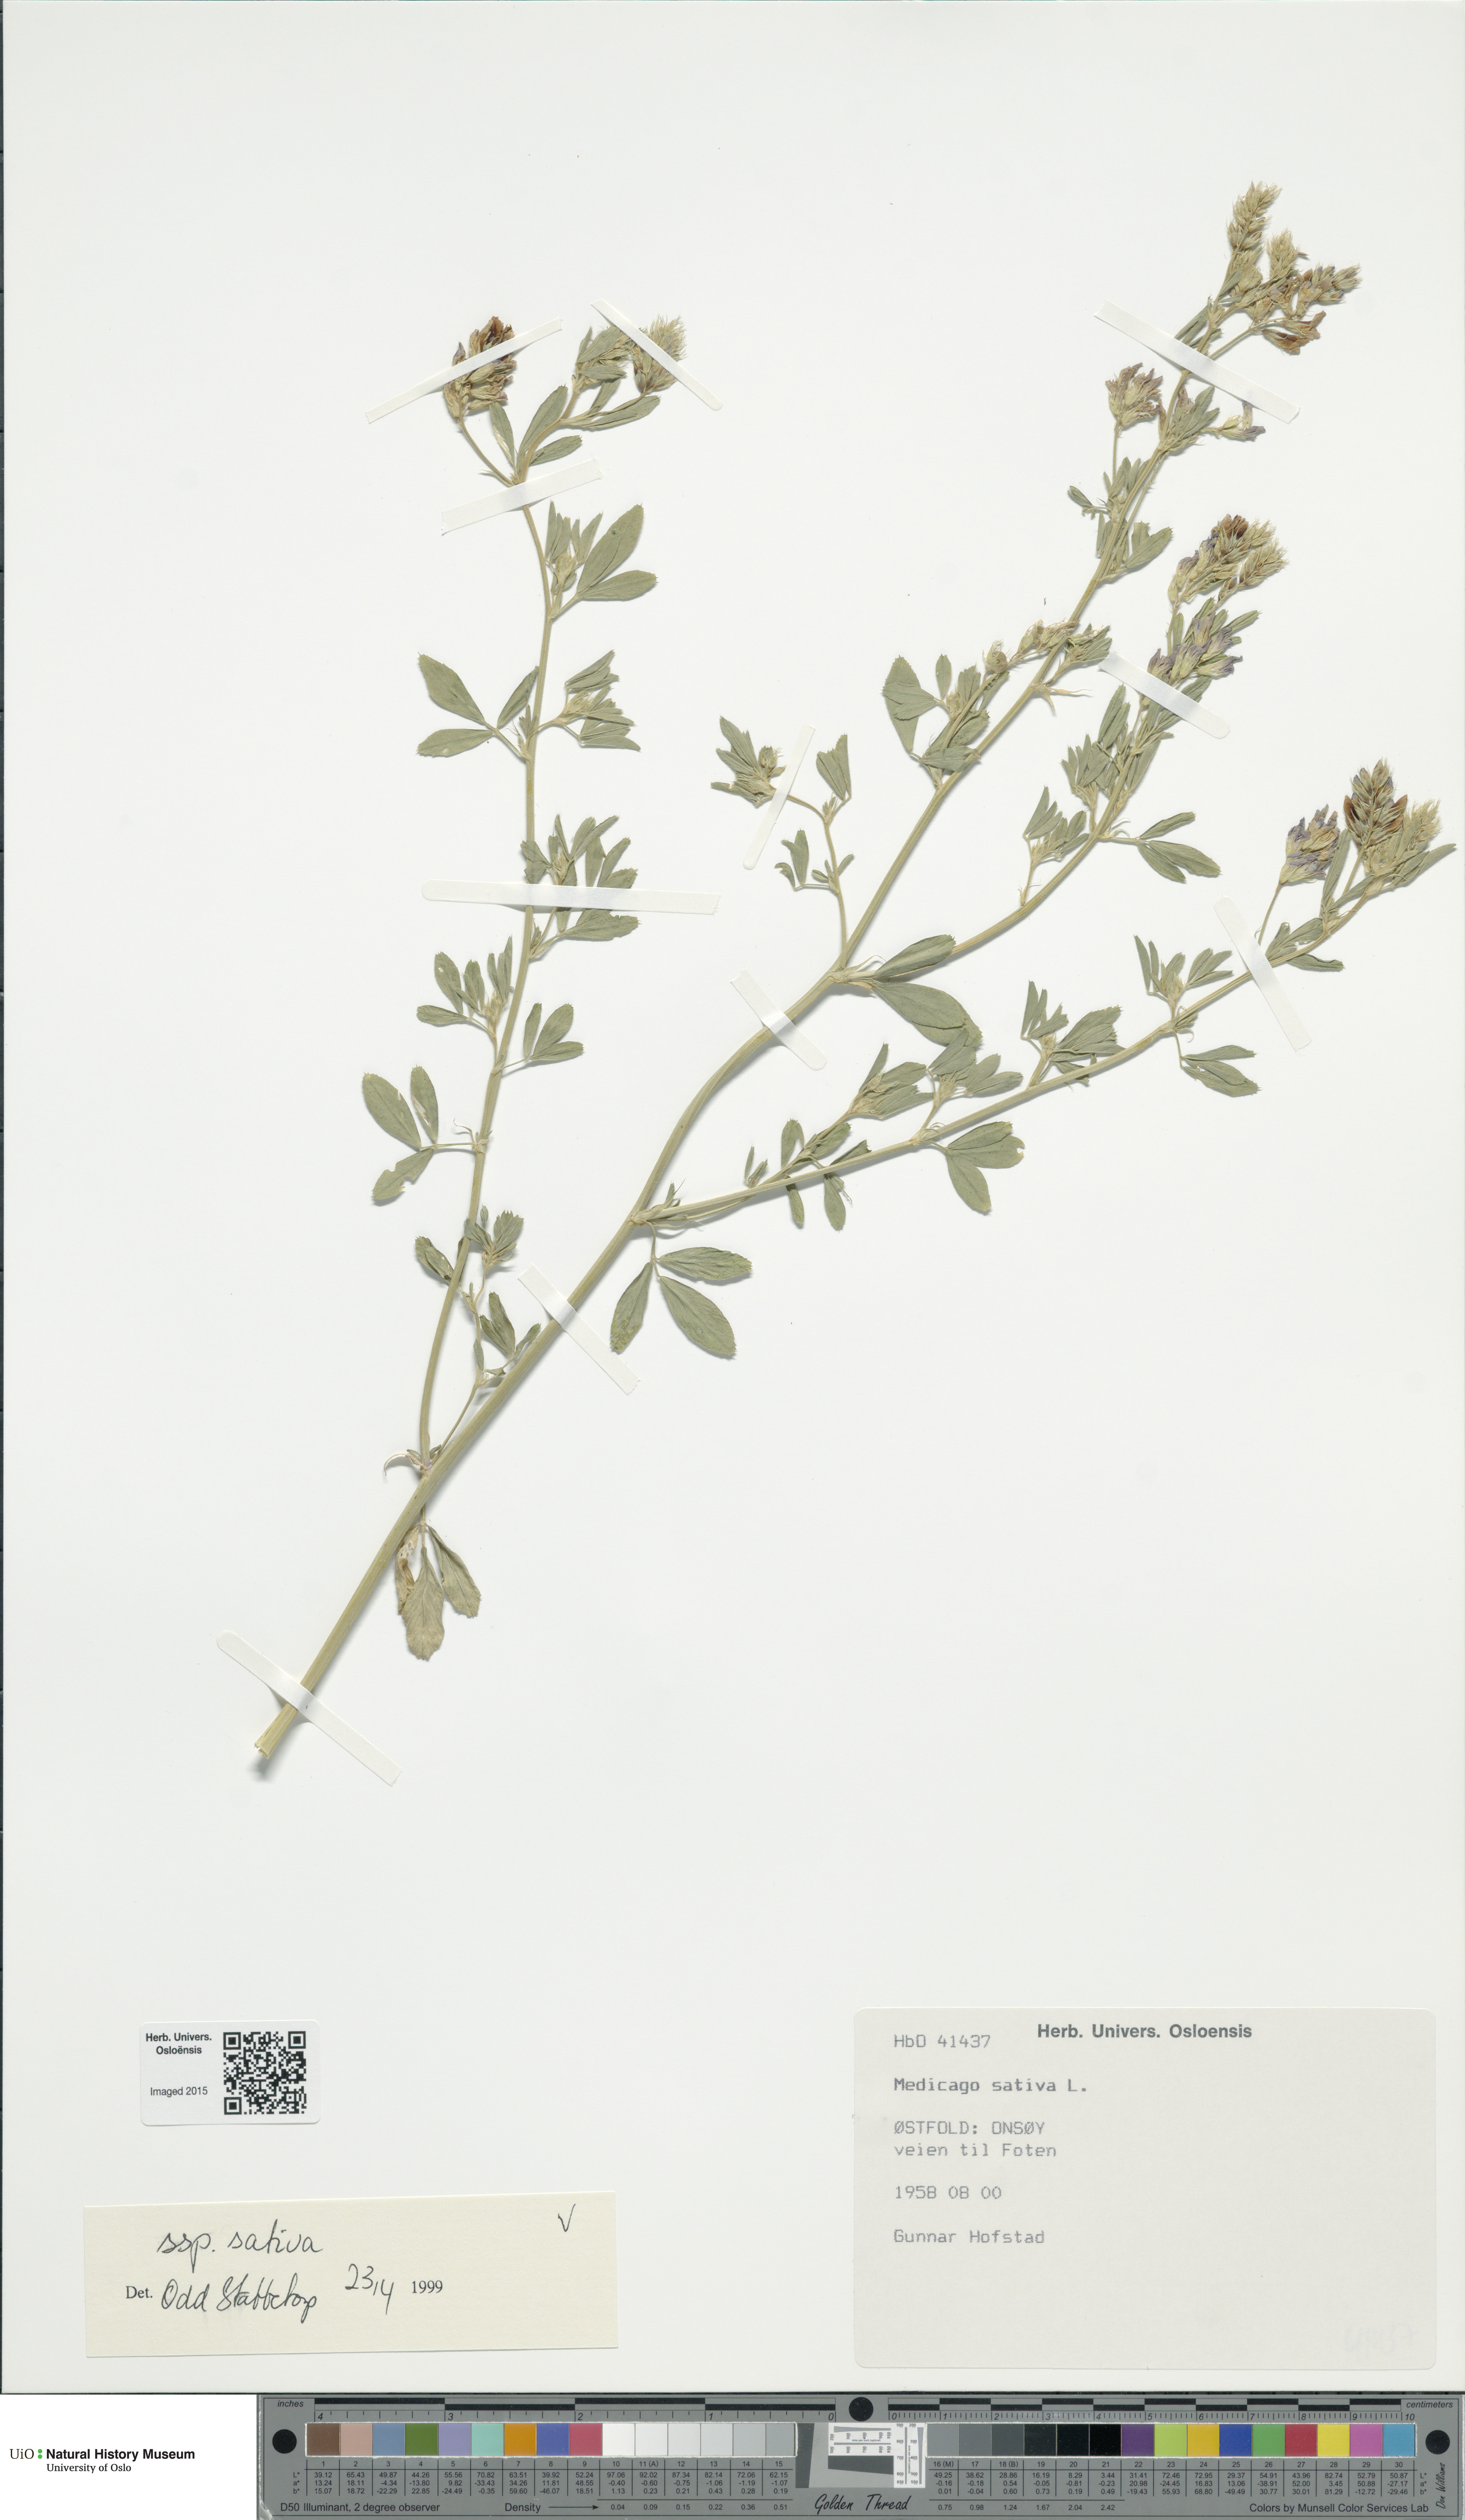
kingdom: Plantae
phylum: Tracheophyta
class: Magnoliopsida
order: Fabales
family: Fabaceae
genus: Medicago
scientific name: Medicago sativa
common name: Alfalfa
